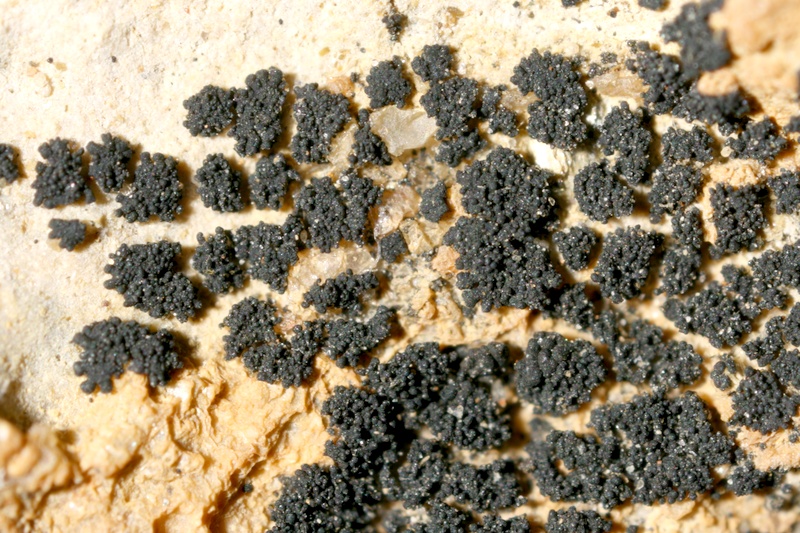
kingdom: Fungi
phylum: Ascomycota
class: Lichinomycetes
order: Lichinales
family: Lichinaceae
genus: Lichinella
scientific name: Lichinella granulosa
